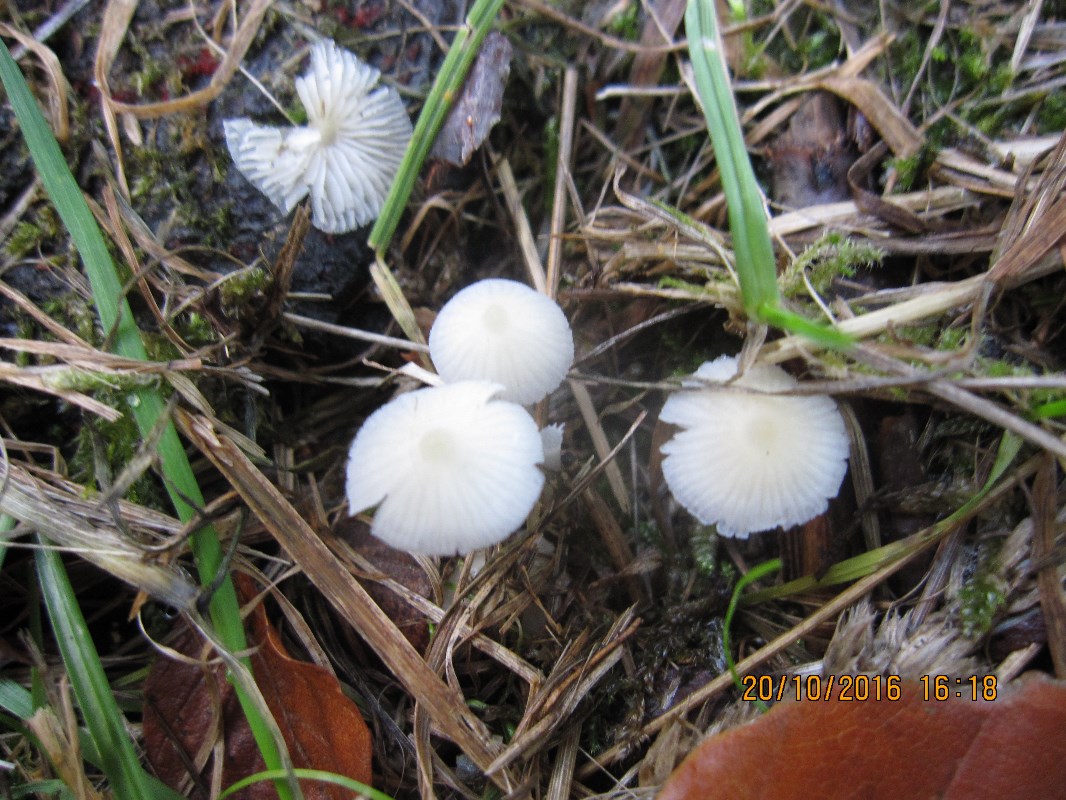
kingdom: Fungi
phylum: Basidiomycota
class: Agaricomycetes
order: Agaricales
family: Porotheleaceae
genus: Phloeomana
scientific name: Phloeomana minutula
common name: bleg huesvamp
